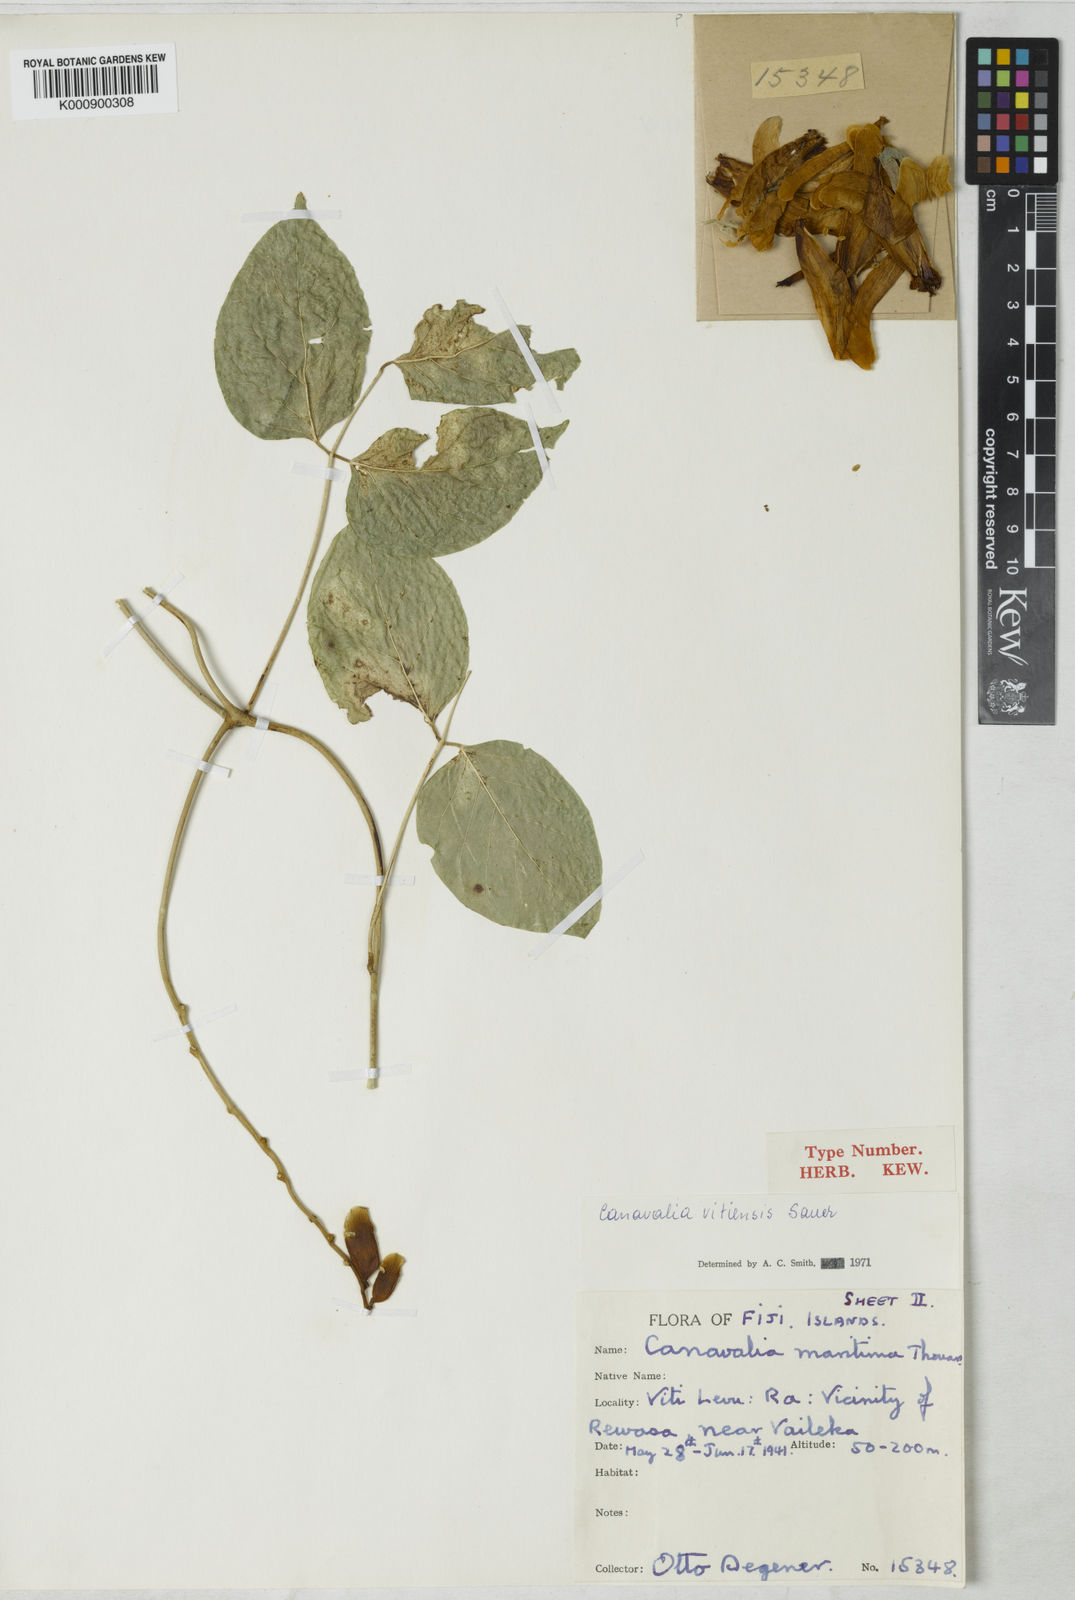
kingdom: Plantae
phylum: Tracheophyta
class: Magnoliopsida
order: Fabales
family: Fabaceae
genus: Canavalia
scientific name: Canavalia vitiensis
